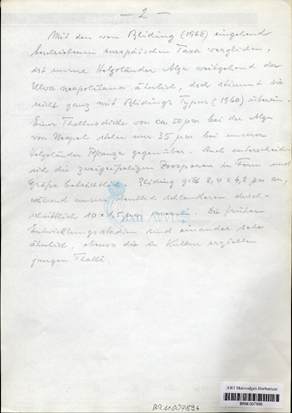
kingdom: Plantae
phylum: Chlorophyta
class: Ulvophyceae
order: Ulvales
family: Ulvaceae
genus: Ulva
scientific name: Ulva tenera
